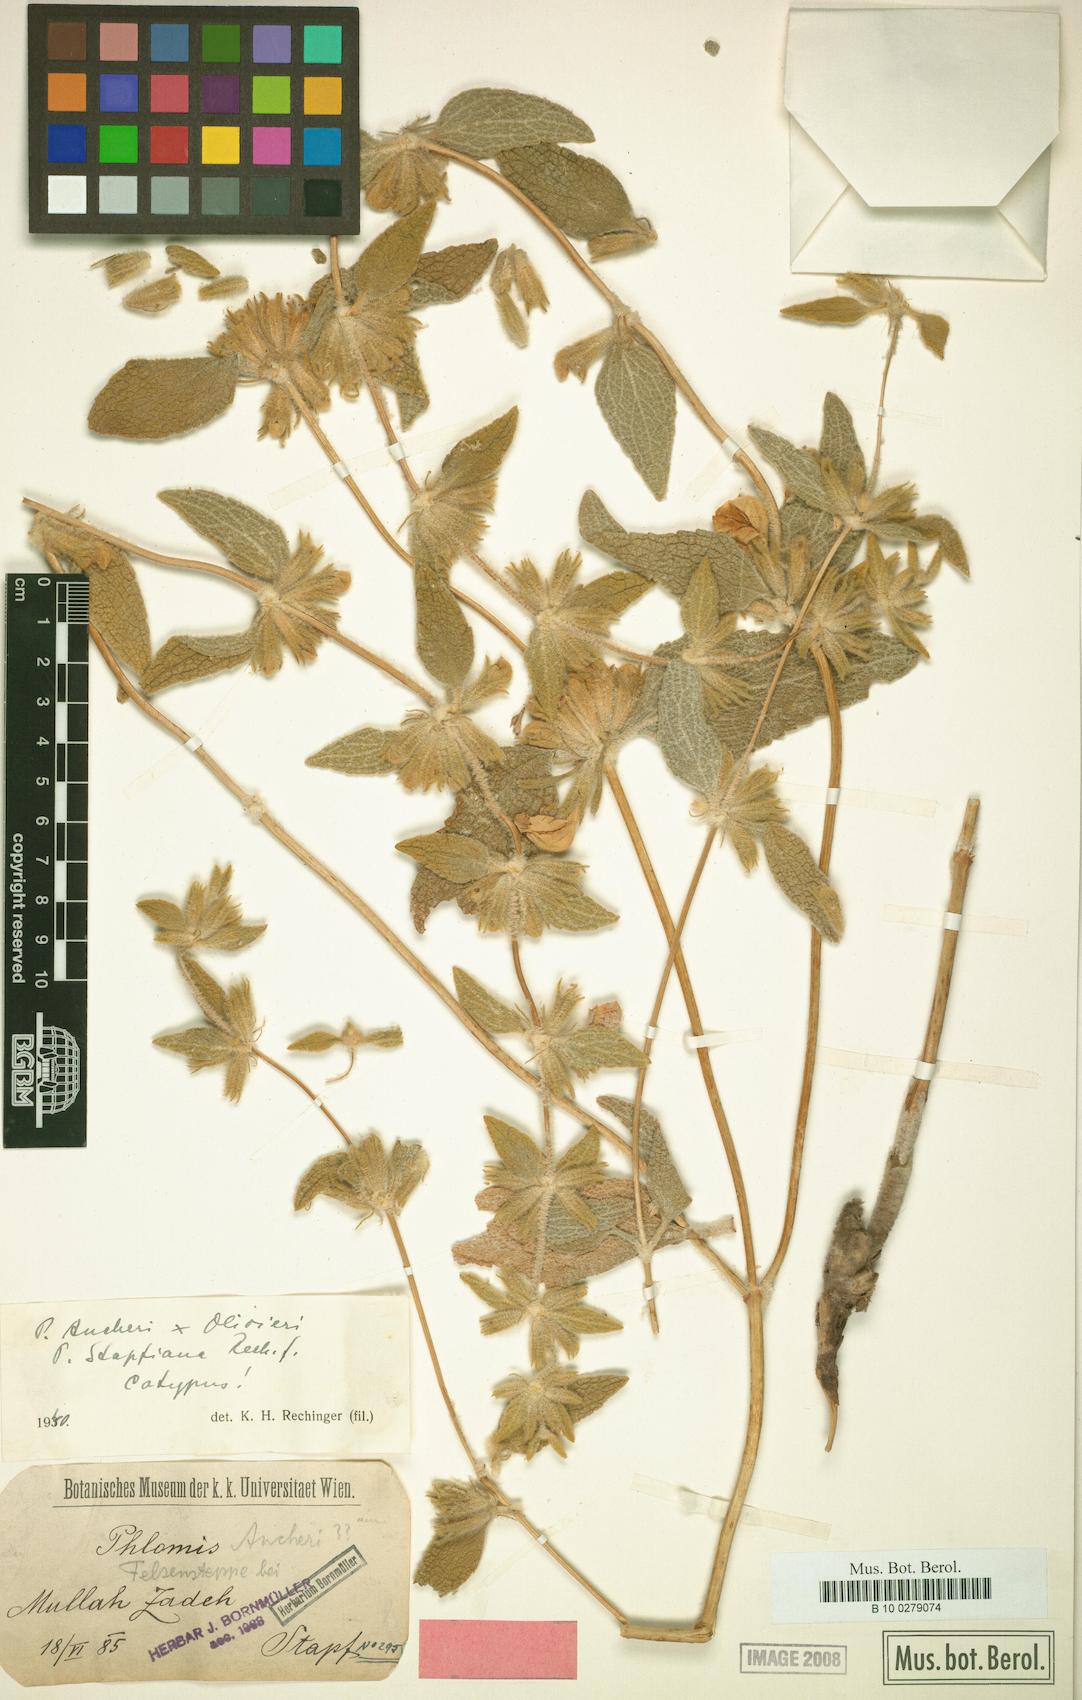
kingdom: Plantae
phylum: Tracheophyta
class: Magnoliopsida
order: Lamiales
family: Lamiaceae
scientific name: Lamiaceae
